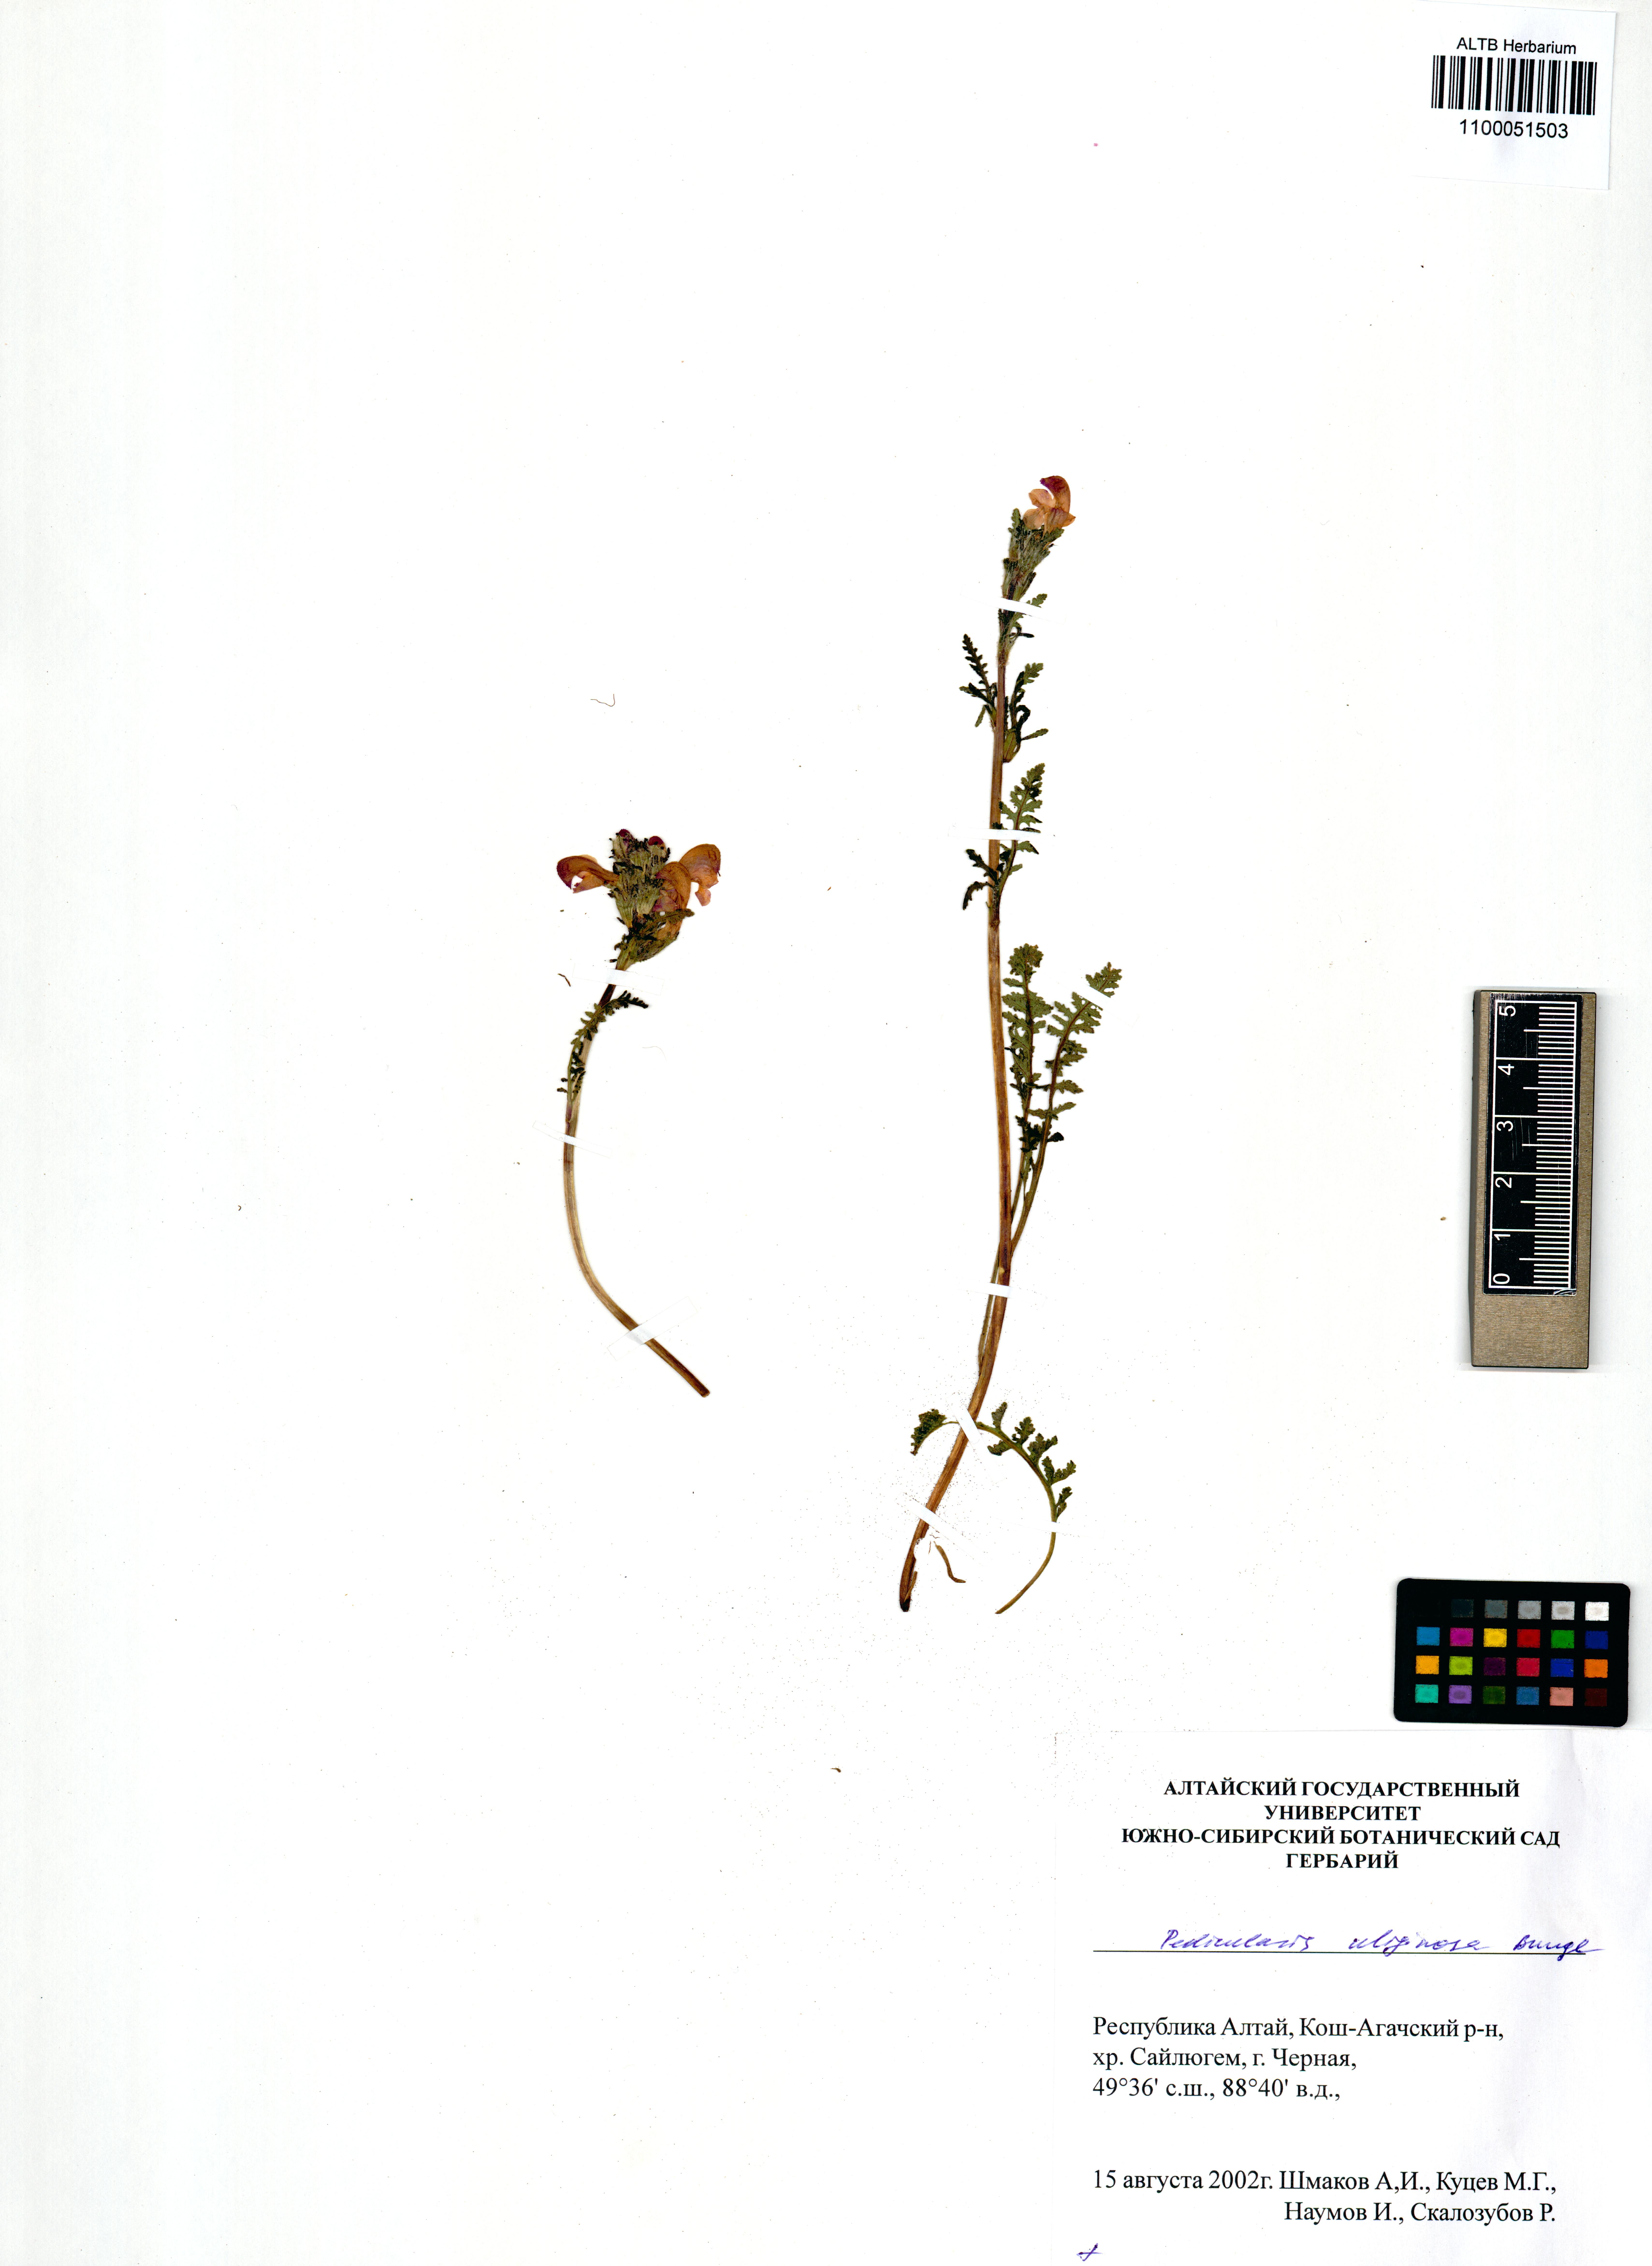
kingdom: Plantae
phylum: Tracheophyta
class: Magnoliopsida
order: Lamiales
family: Orobanchaceae
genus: Pedicularis
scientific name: Pedicularis uliginosa
